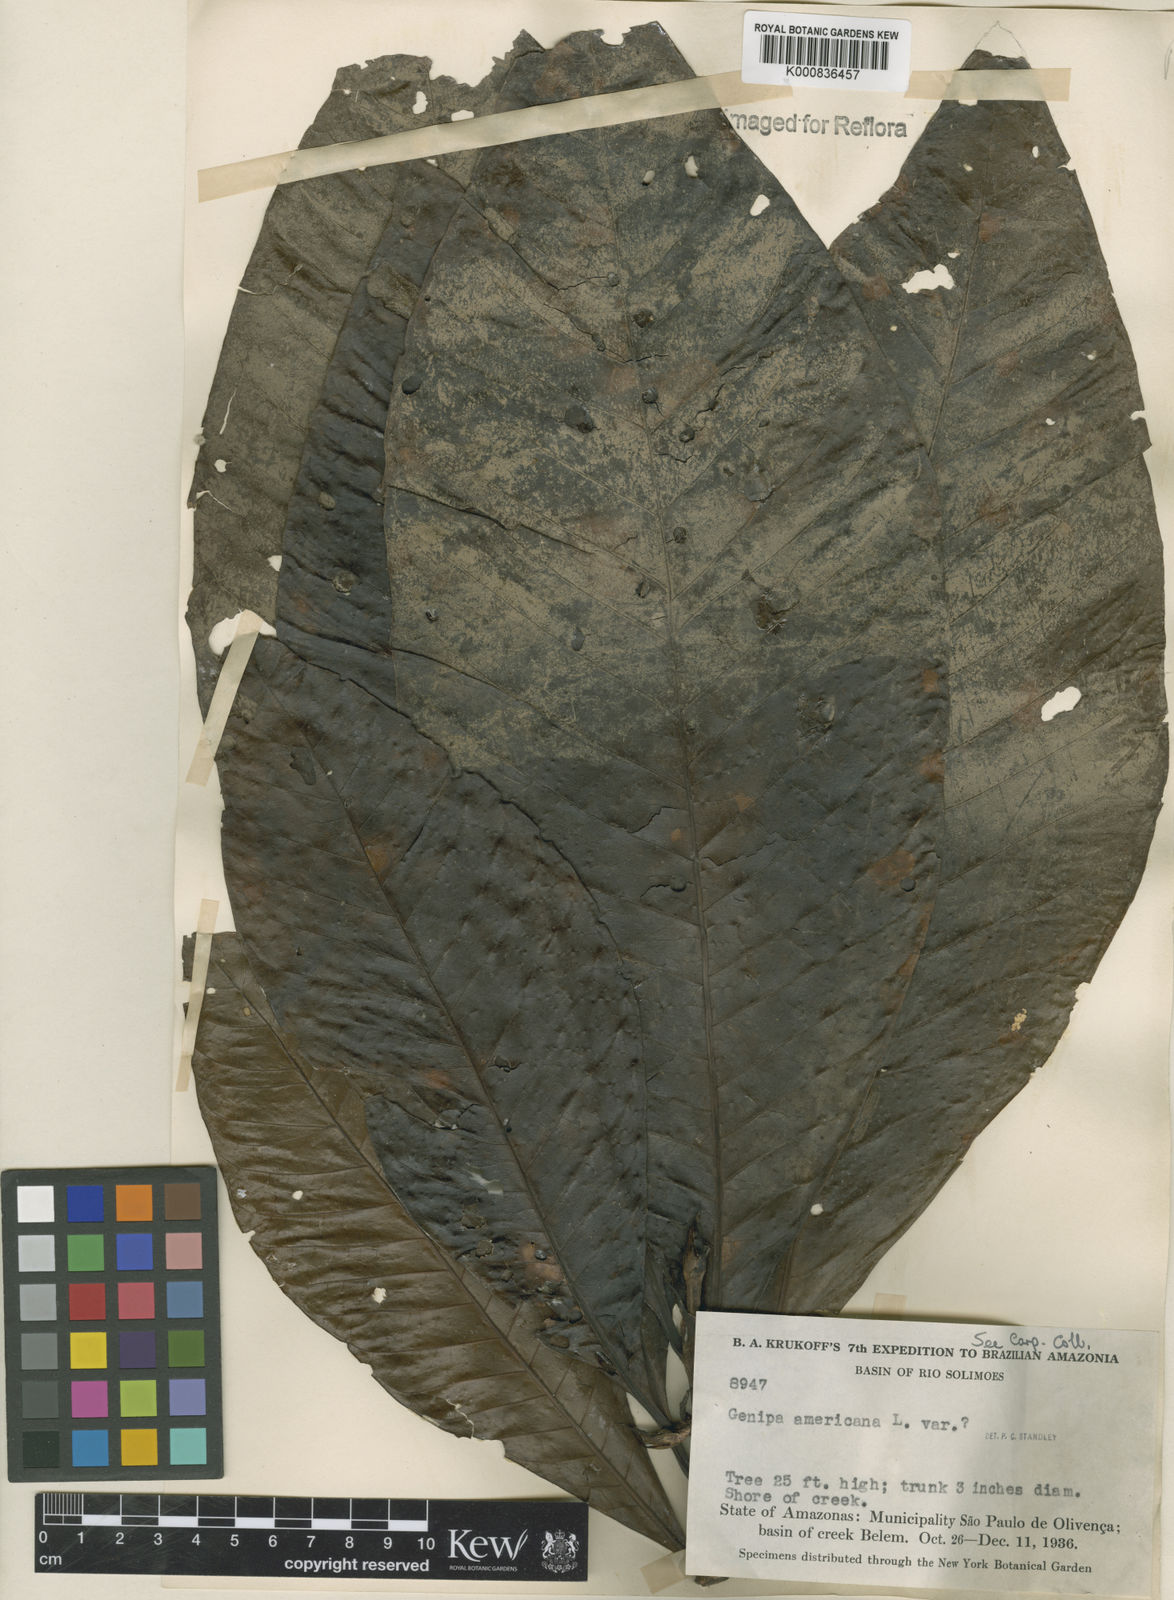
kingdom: Plantae
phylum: Tracheophyta
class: Magnoliopsida
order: Gentianales
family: Rubiaceae
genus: Genipa
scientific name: Genipa americana
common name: Genipap
